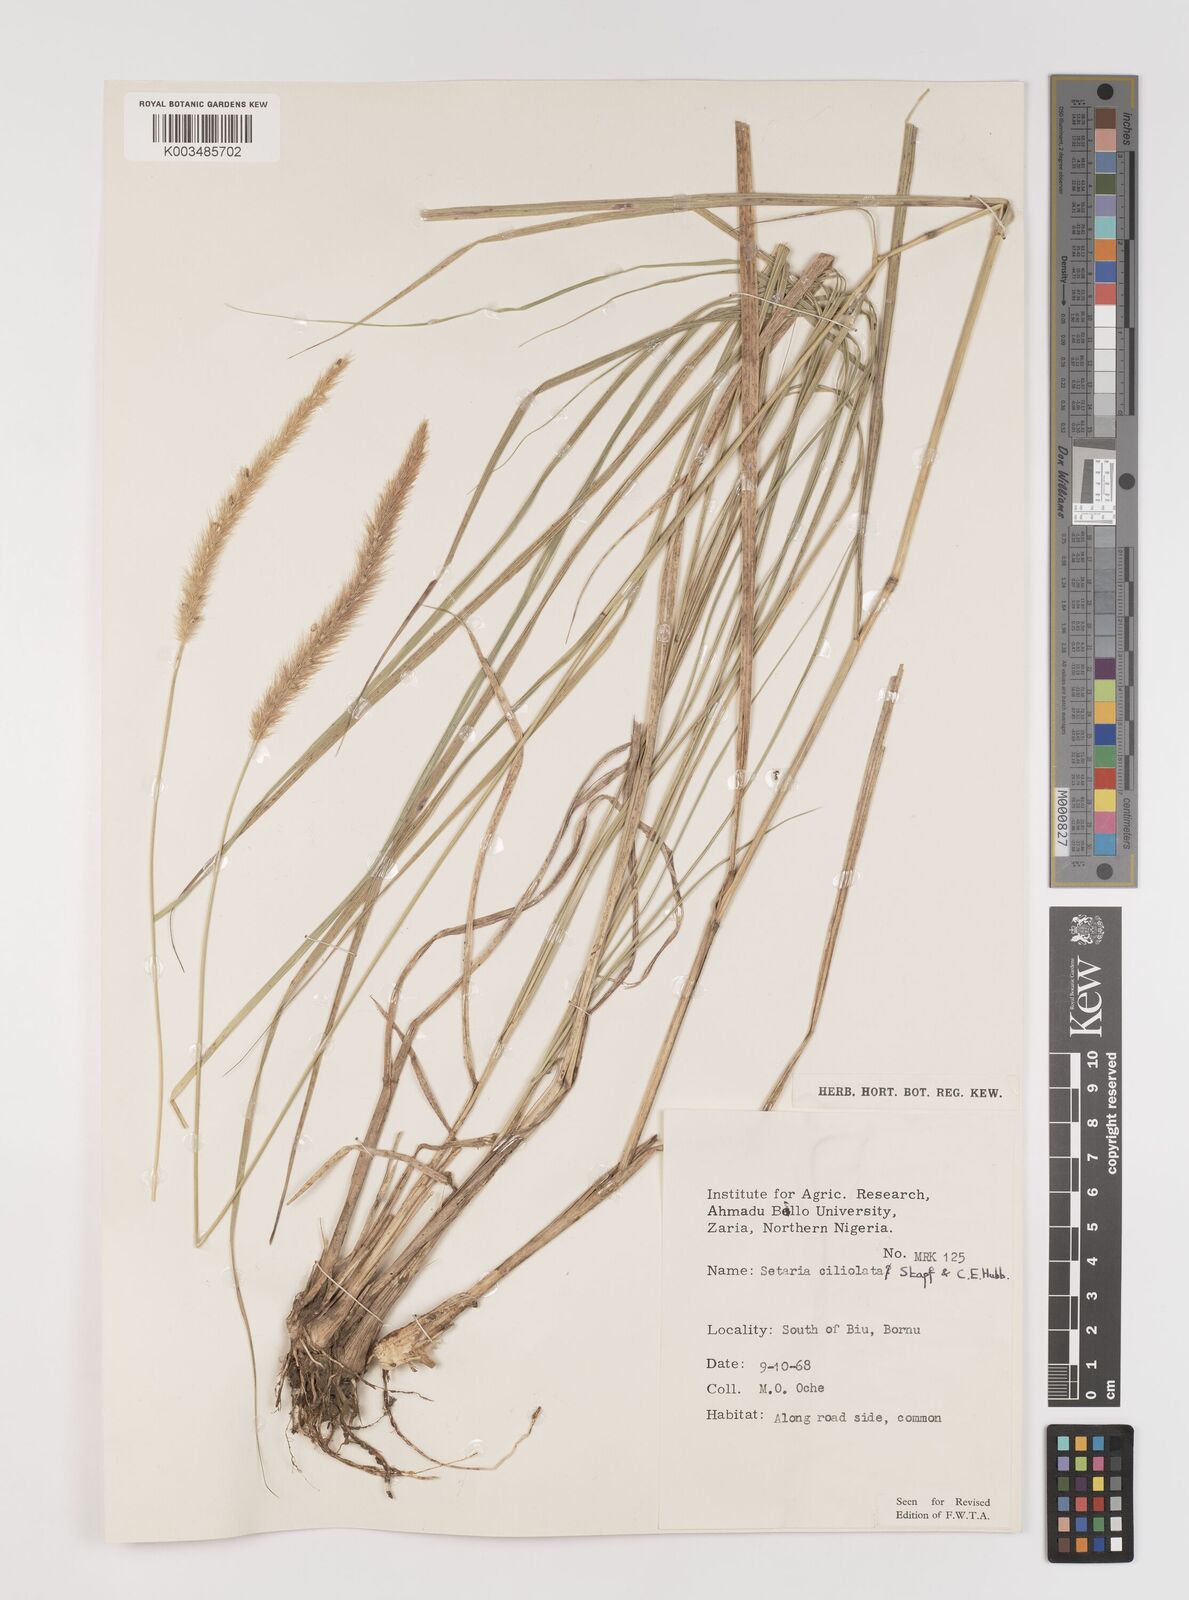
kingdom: Plantae
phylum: Tracheophyta
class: Liliopsida
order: Poales
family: Poaceae
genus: Setaria
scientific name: Setaria incrassata
